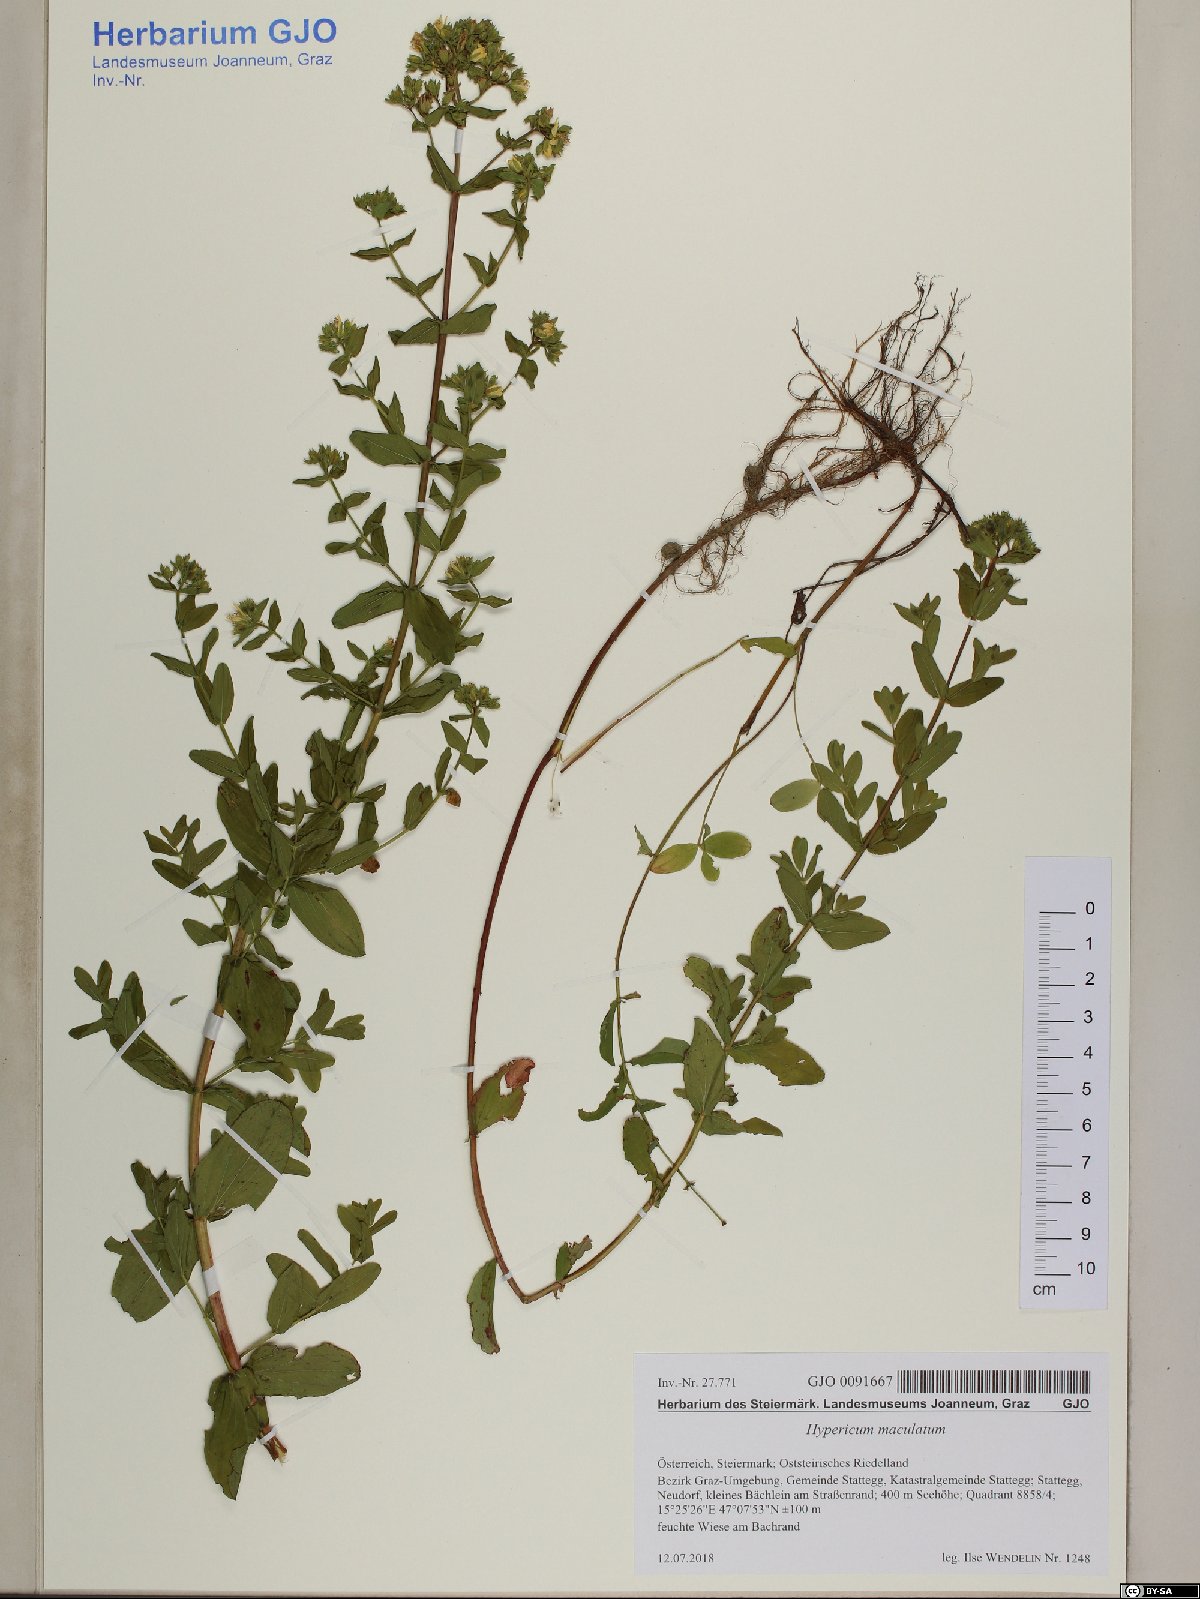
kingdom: Plantae
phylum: Tracheophyta
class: Magnoliopsida
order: Malpighiales
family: Hypericaceae
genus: Hypericum
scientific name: Hypericum maculatum
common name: Imperforate st. john's-wort
